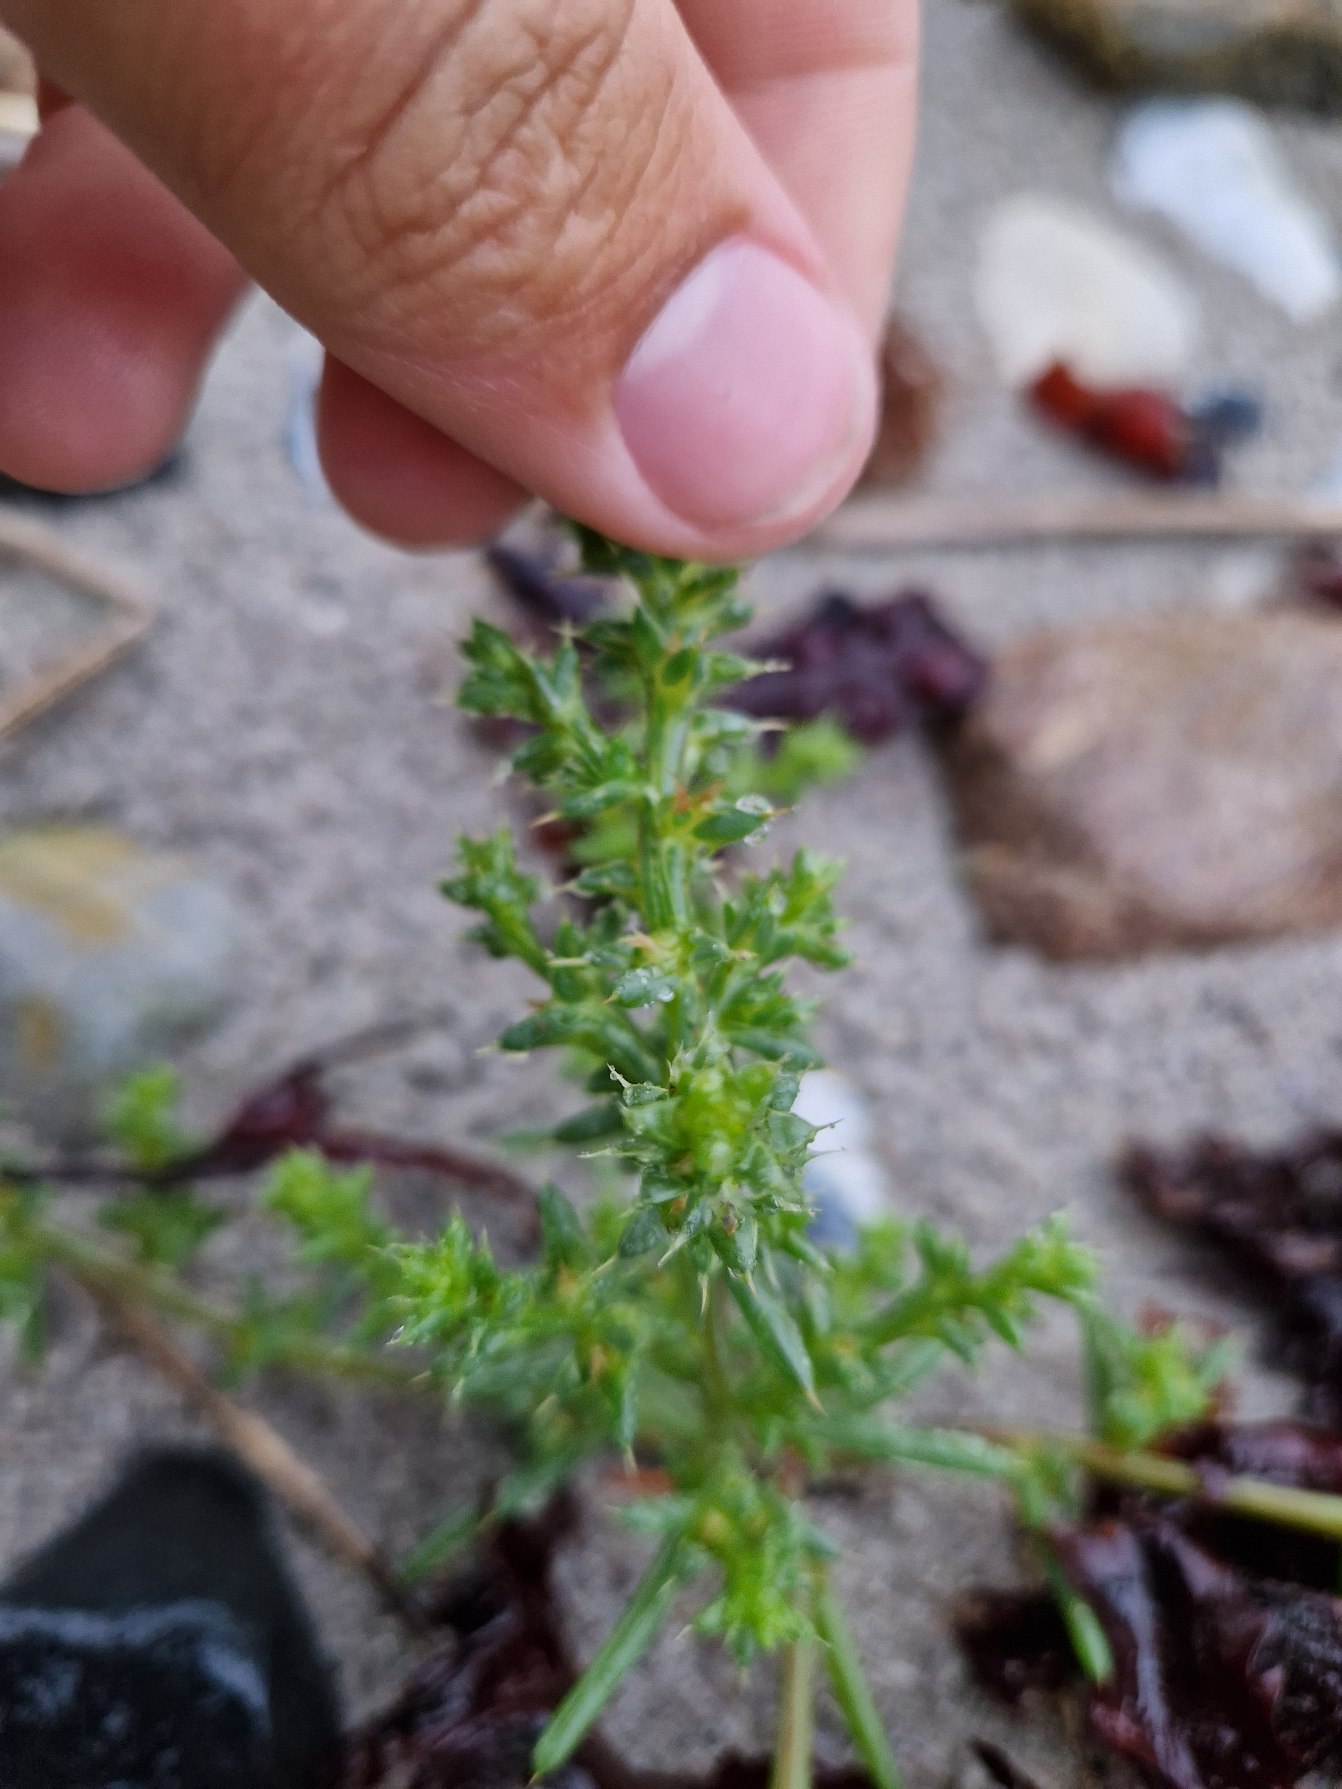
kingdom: Plantae
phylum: Tracheophyta
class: Magnoliopsida
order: Caryophyllales
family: Amaranthaceae
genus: Salsola
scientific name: Salsola kali
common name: Sodaurt
